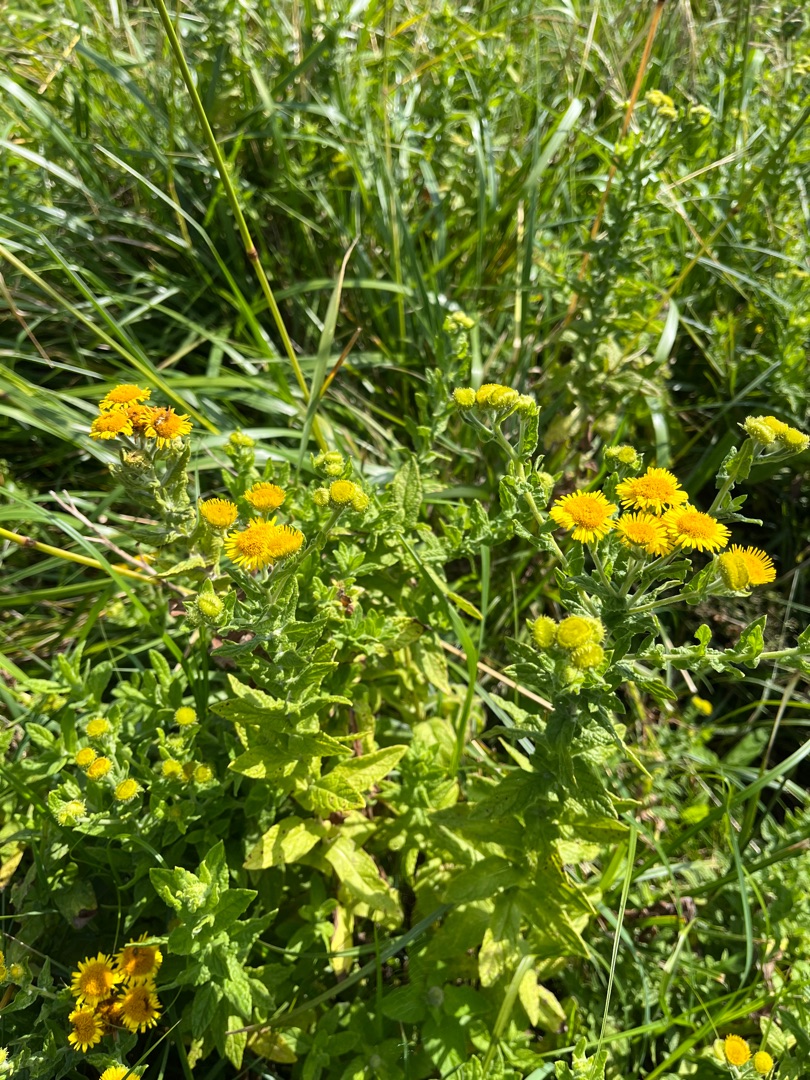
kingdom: Plantae
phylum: Tracheophyta
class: Magnoliopsida
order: Asterales
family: Asteraceae
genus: Pulicaria
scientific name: Pulicaria dysenterica
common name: Strand-loppeurt
